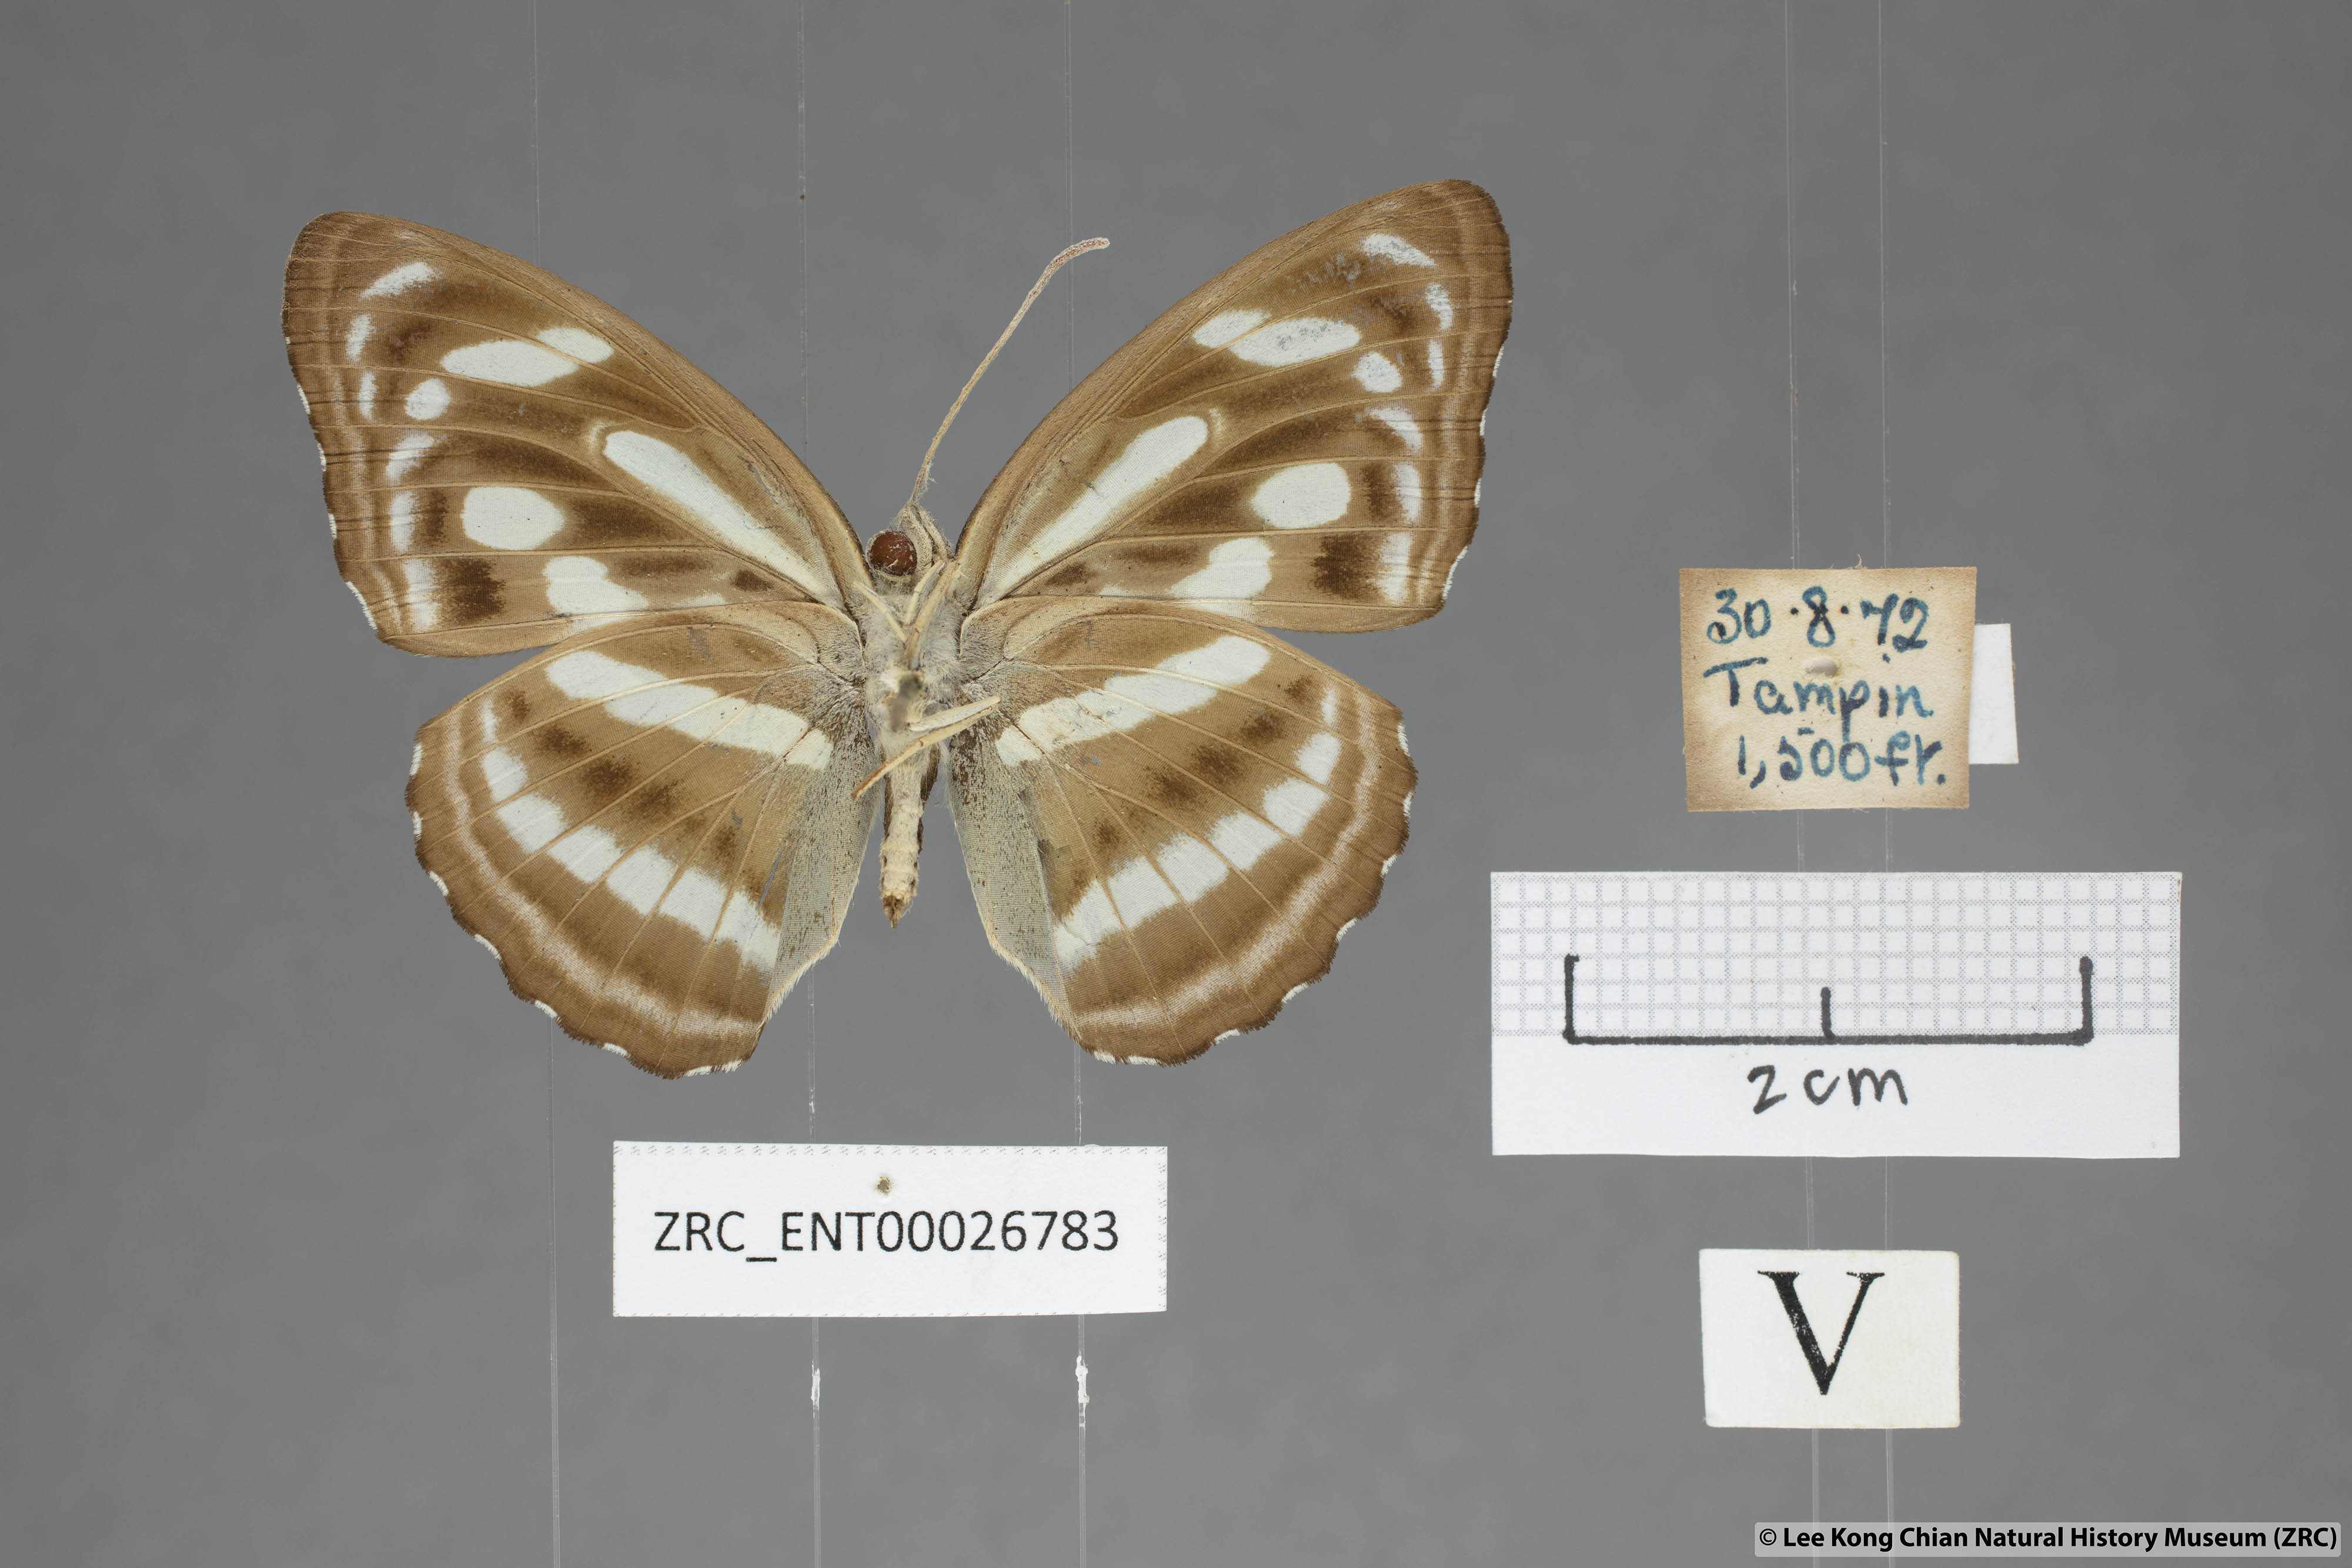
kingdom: Animalia
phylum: Arthropoda
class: Insecta
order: Lepidoptera
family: Nymphalidae
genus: Parathyma
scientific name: Parathyma pravara
